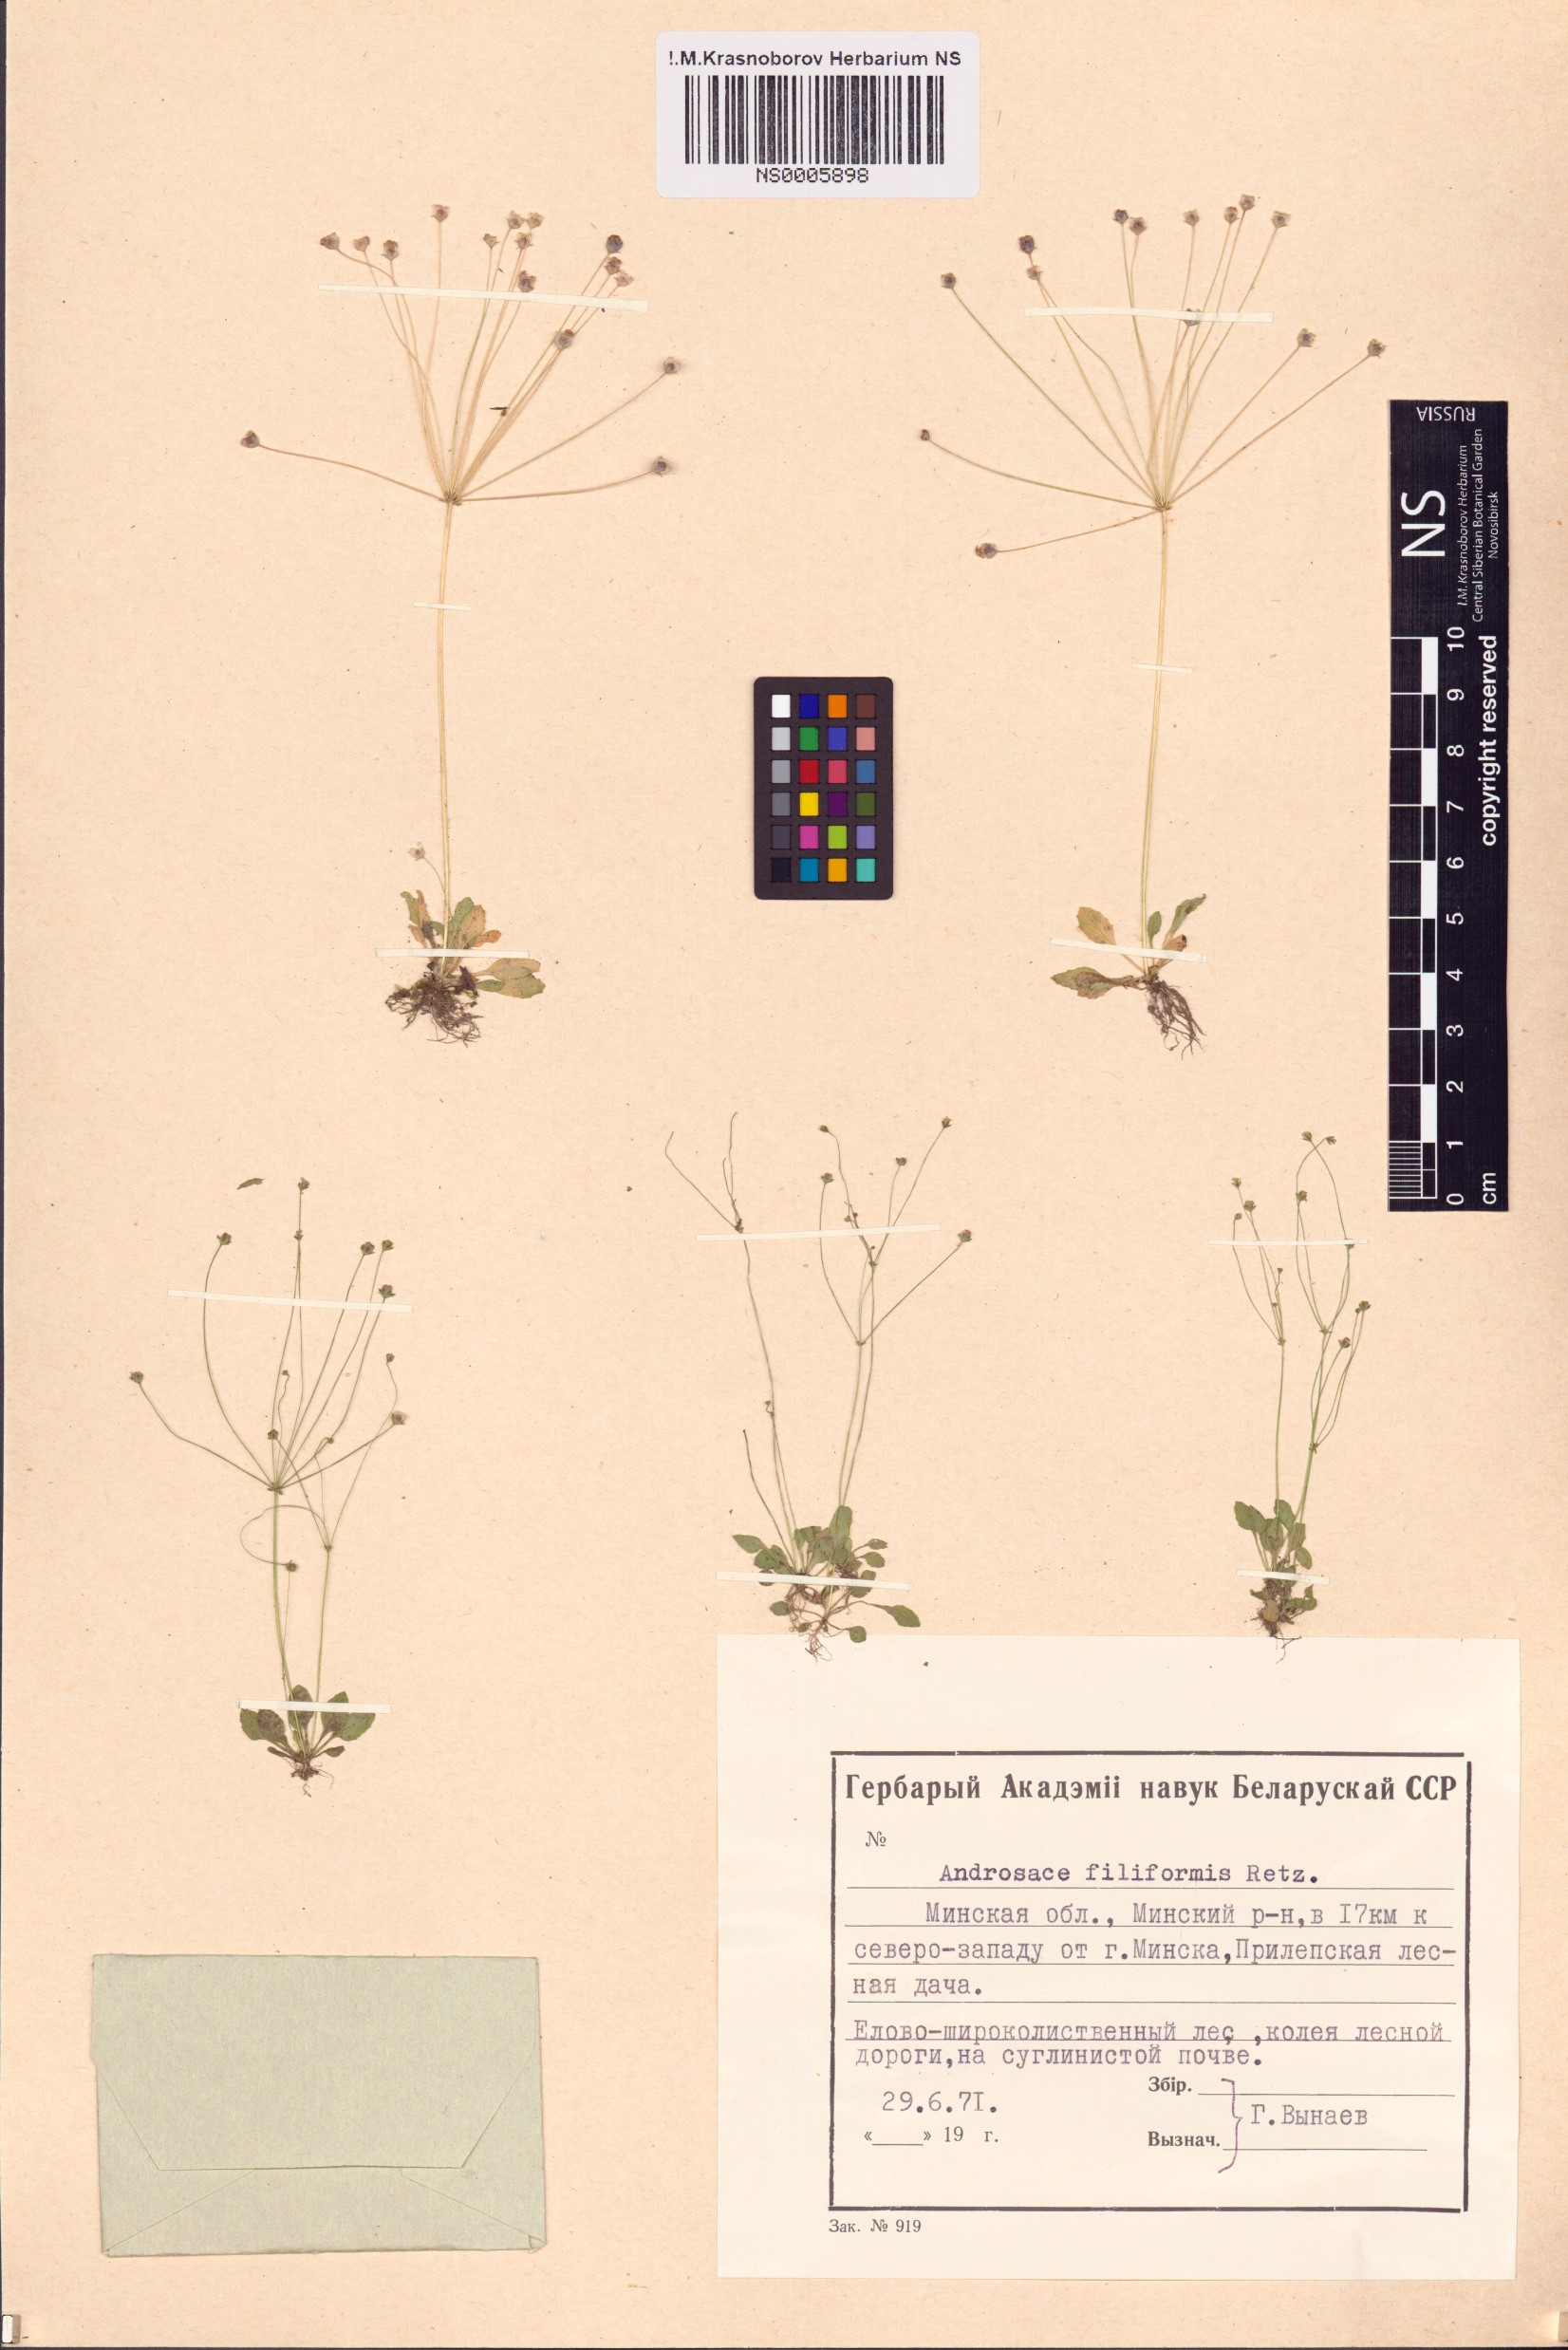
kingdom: Plantae
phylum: Tracheophyta
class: Magnoliopsida
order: Ericales
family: Primulaceae
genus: Androsace
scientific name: Androsace filiformis
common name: Filiform rock jasmine
